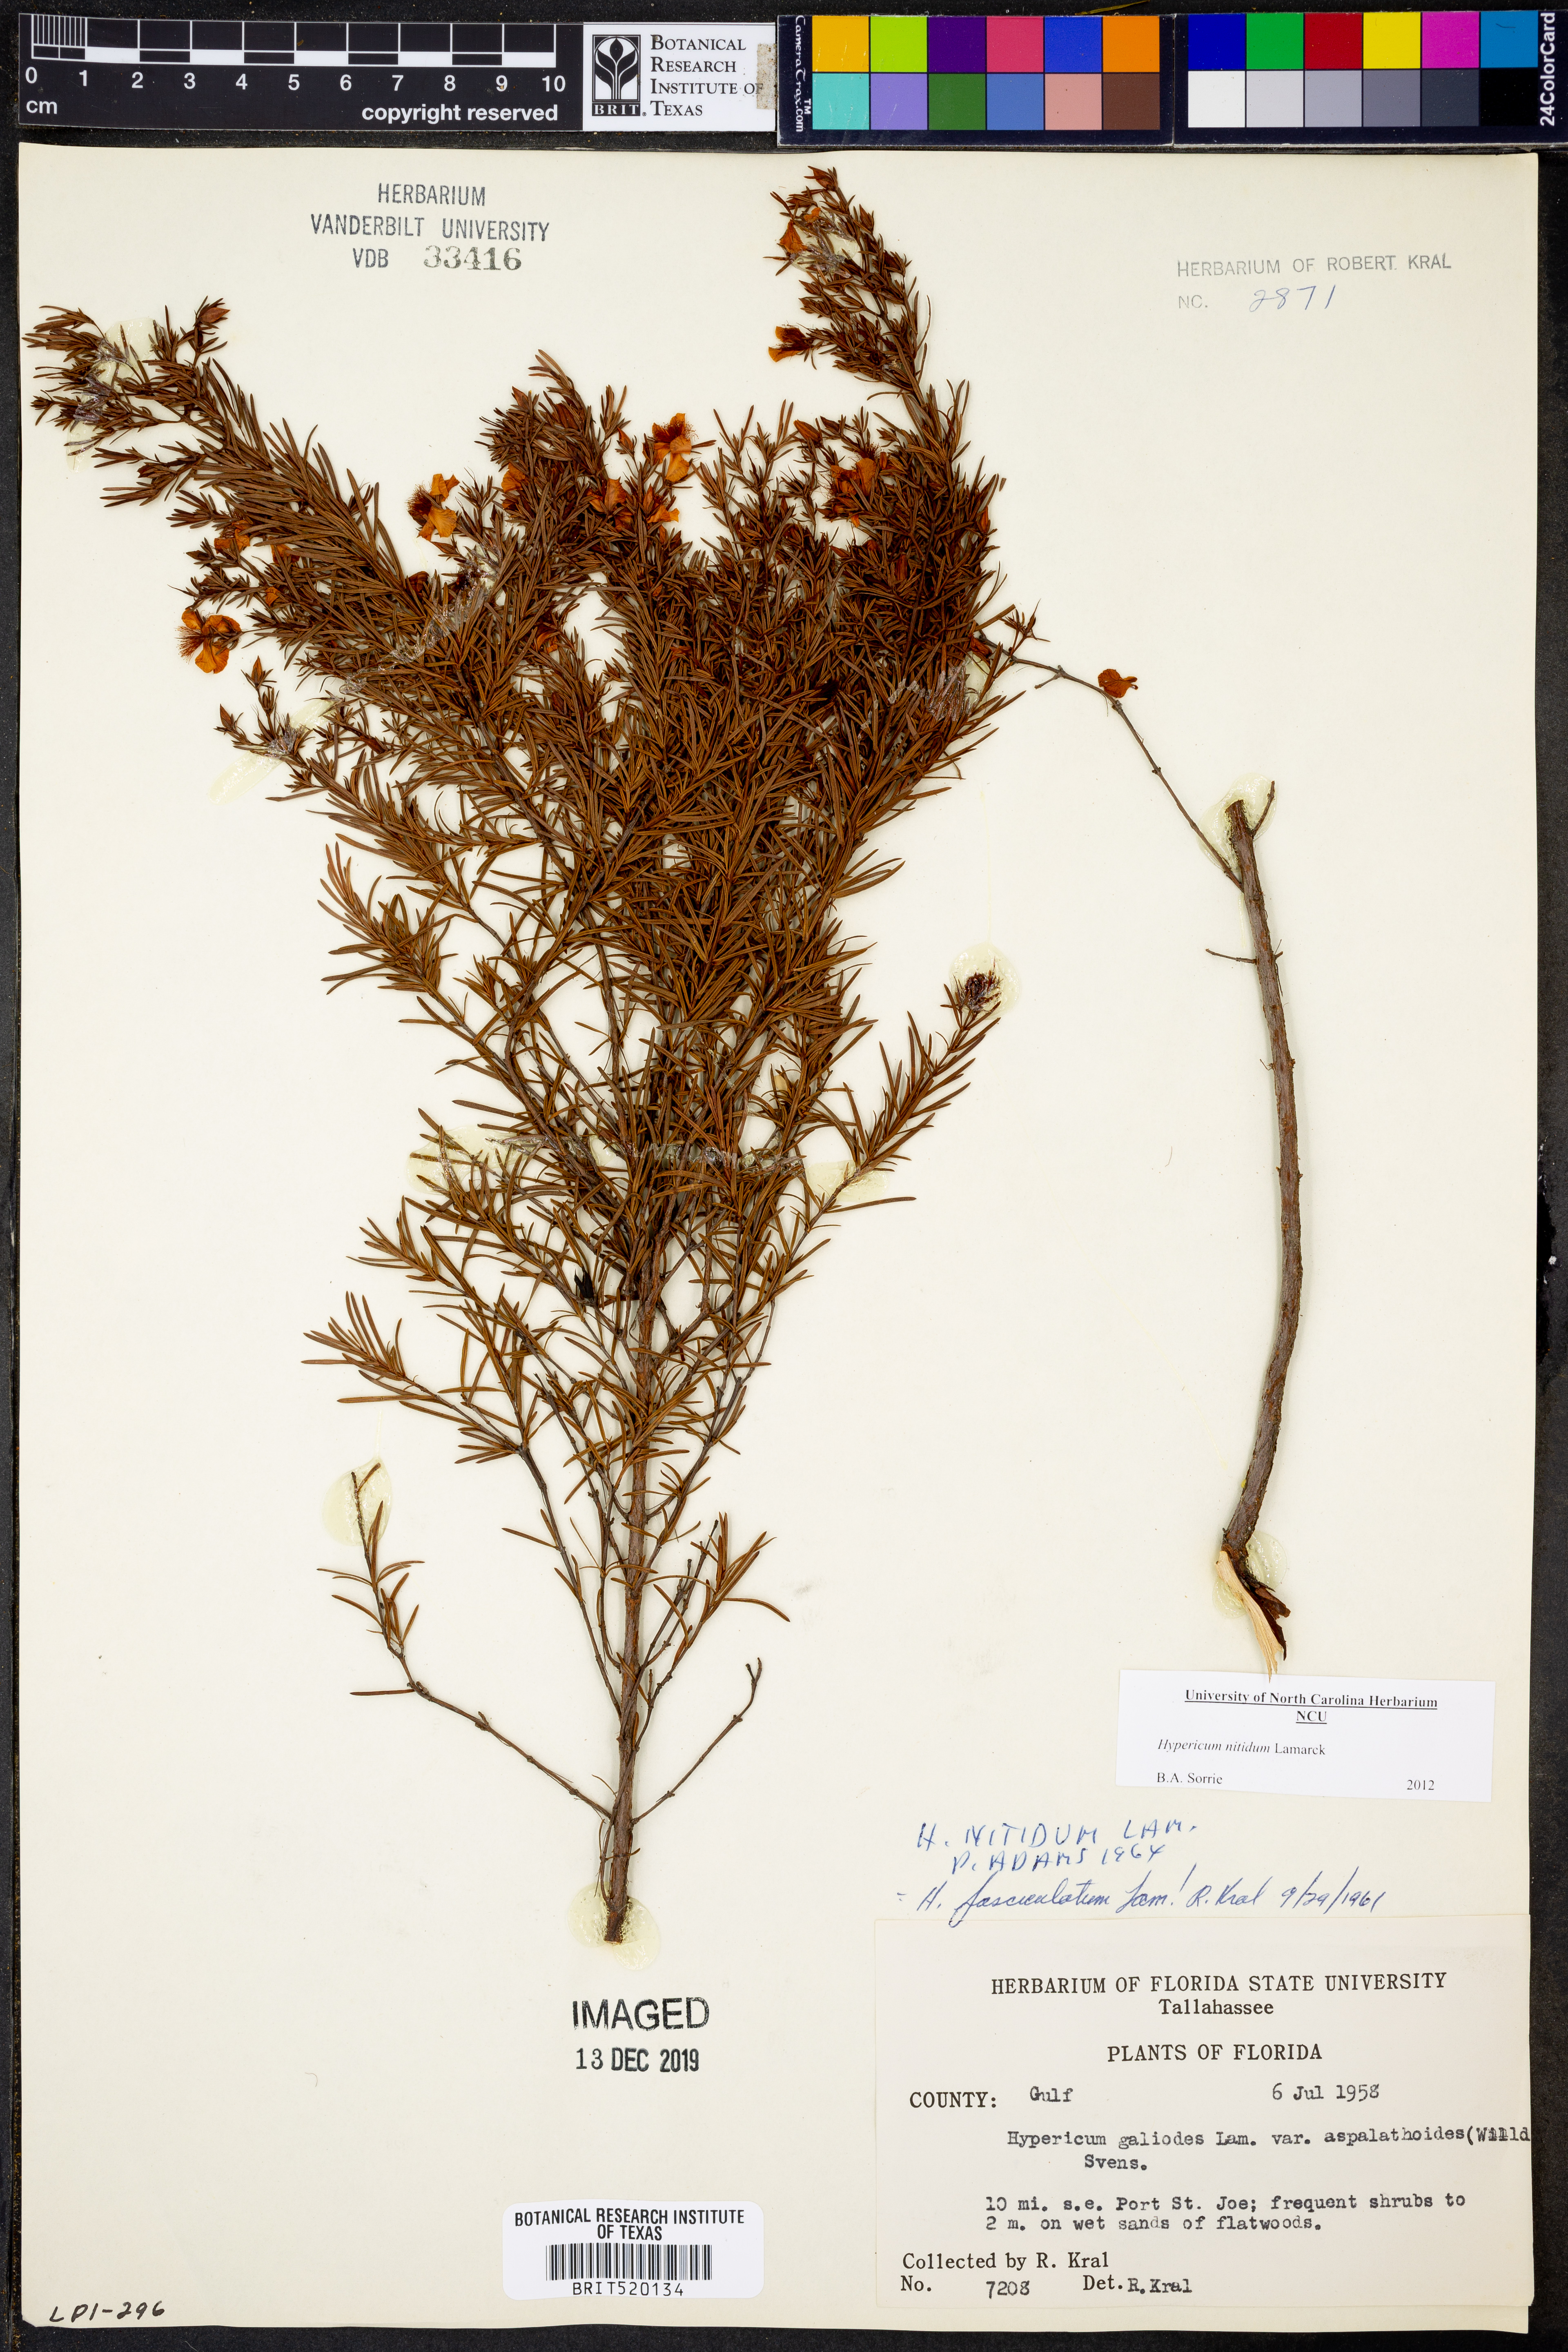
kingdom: Plantae
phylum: Tracheophyta
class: Magnoliopsida
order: Malpighiales
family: Hypericaceae
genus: Hypericum
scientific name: Hypericum nitidum
